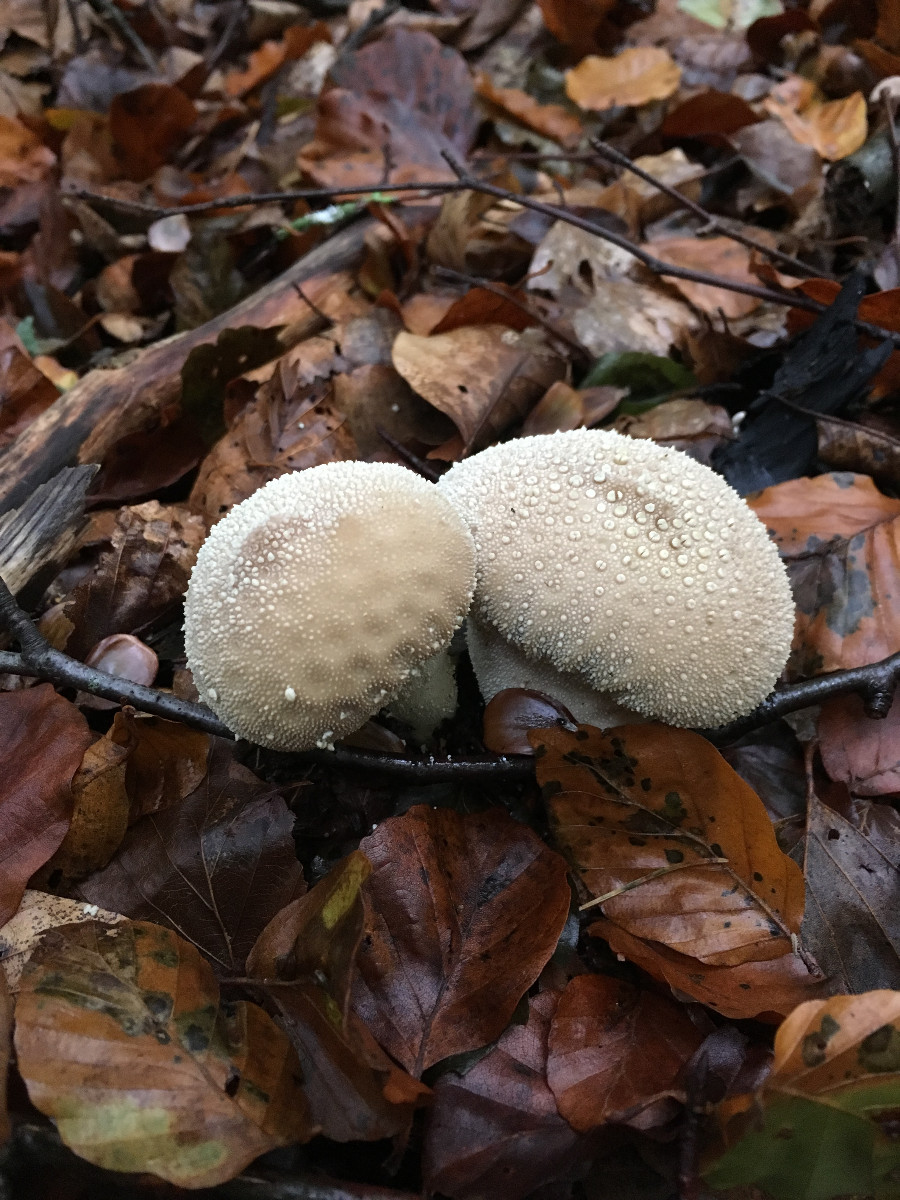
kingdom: Fungi
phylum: Basidiomycota
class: Agaricomycetes
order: Agaricales
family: Lycoperdaceae
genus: Lycoperdon
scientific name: Lycoperdon perlatum
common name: krystal-støvbold
